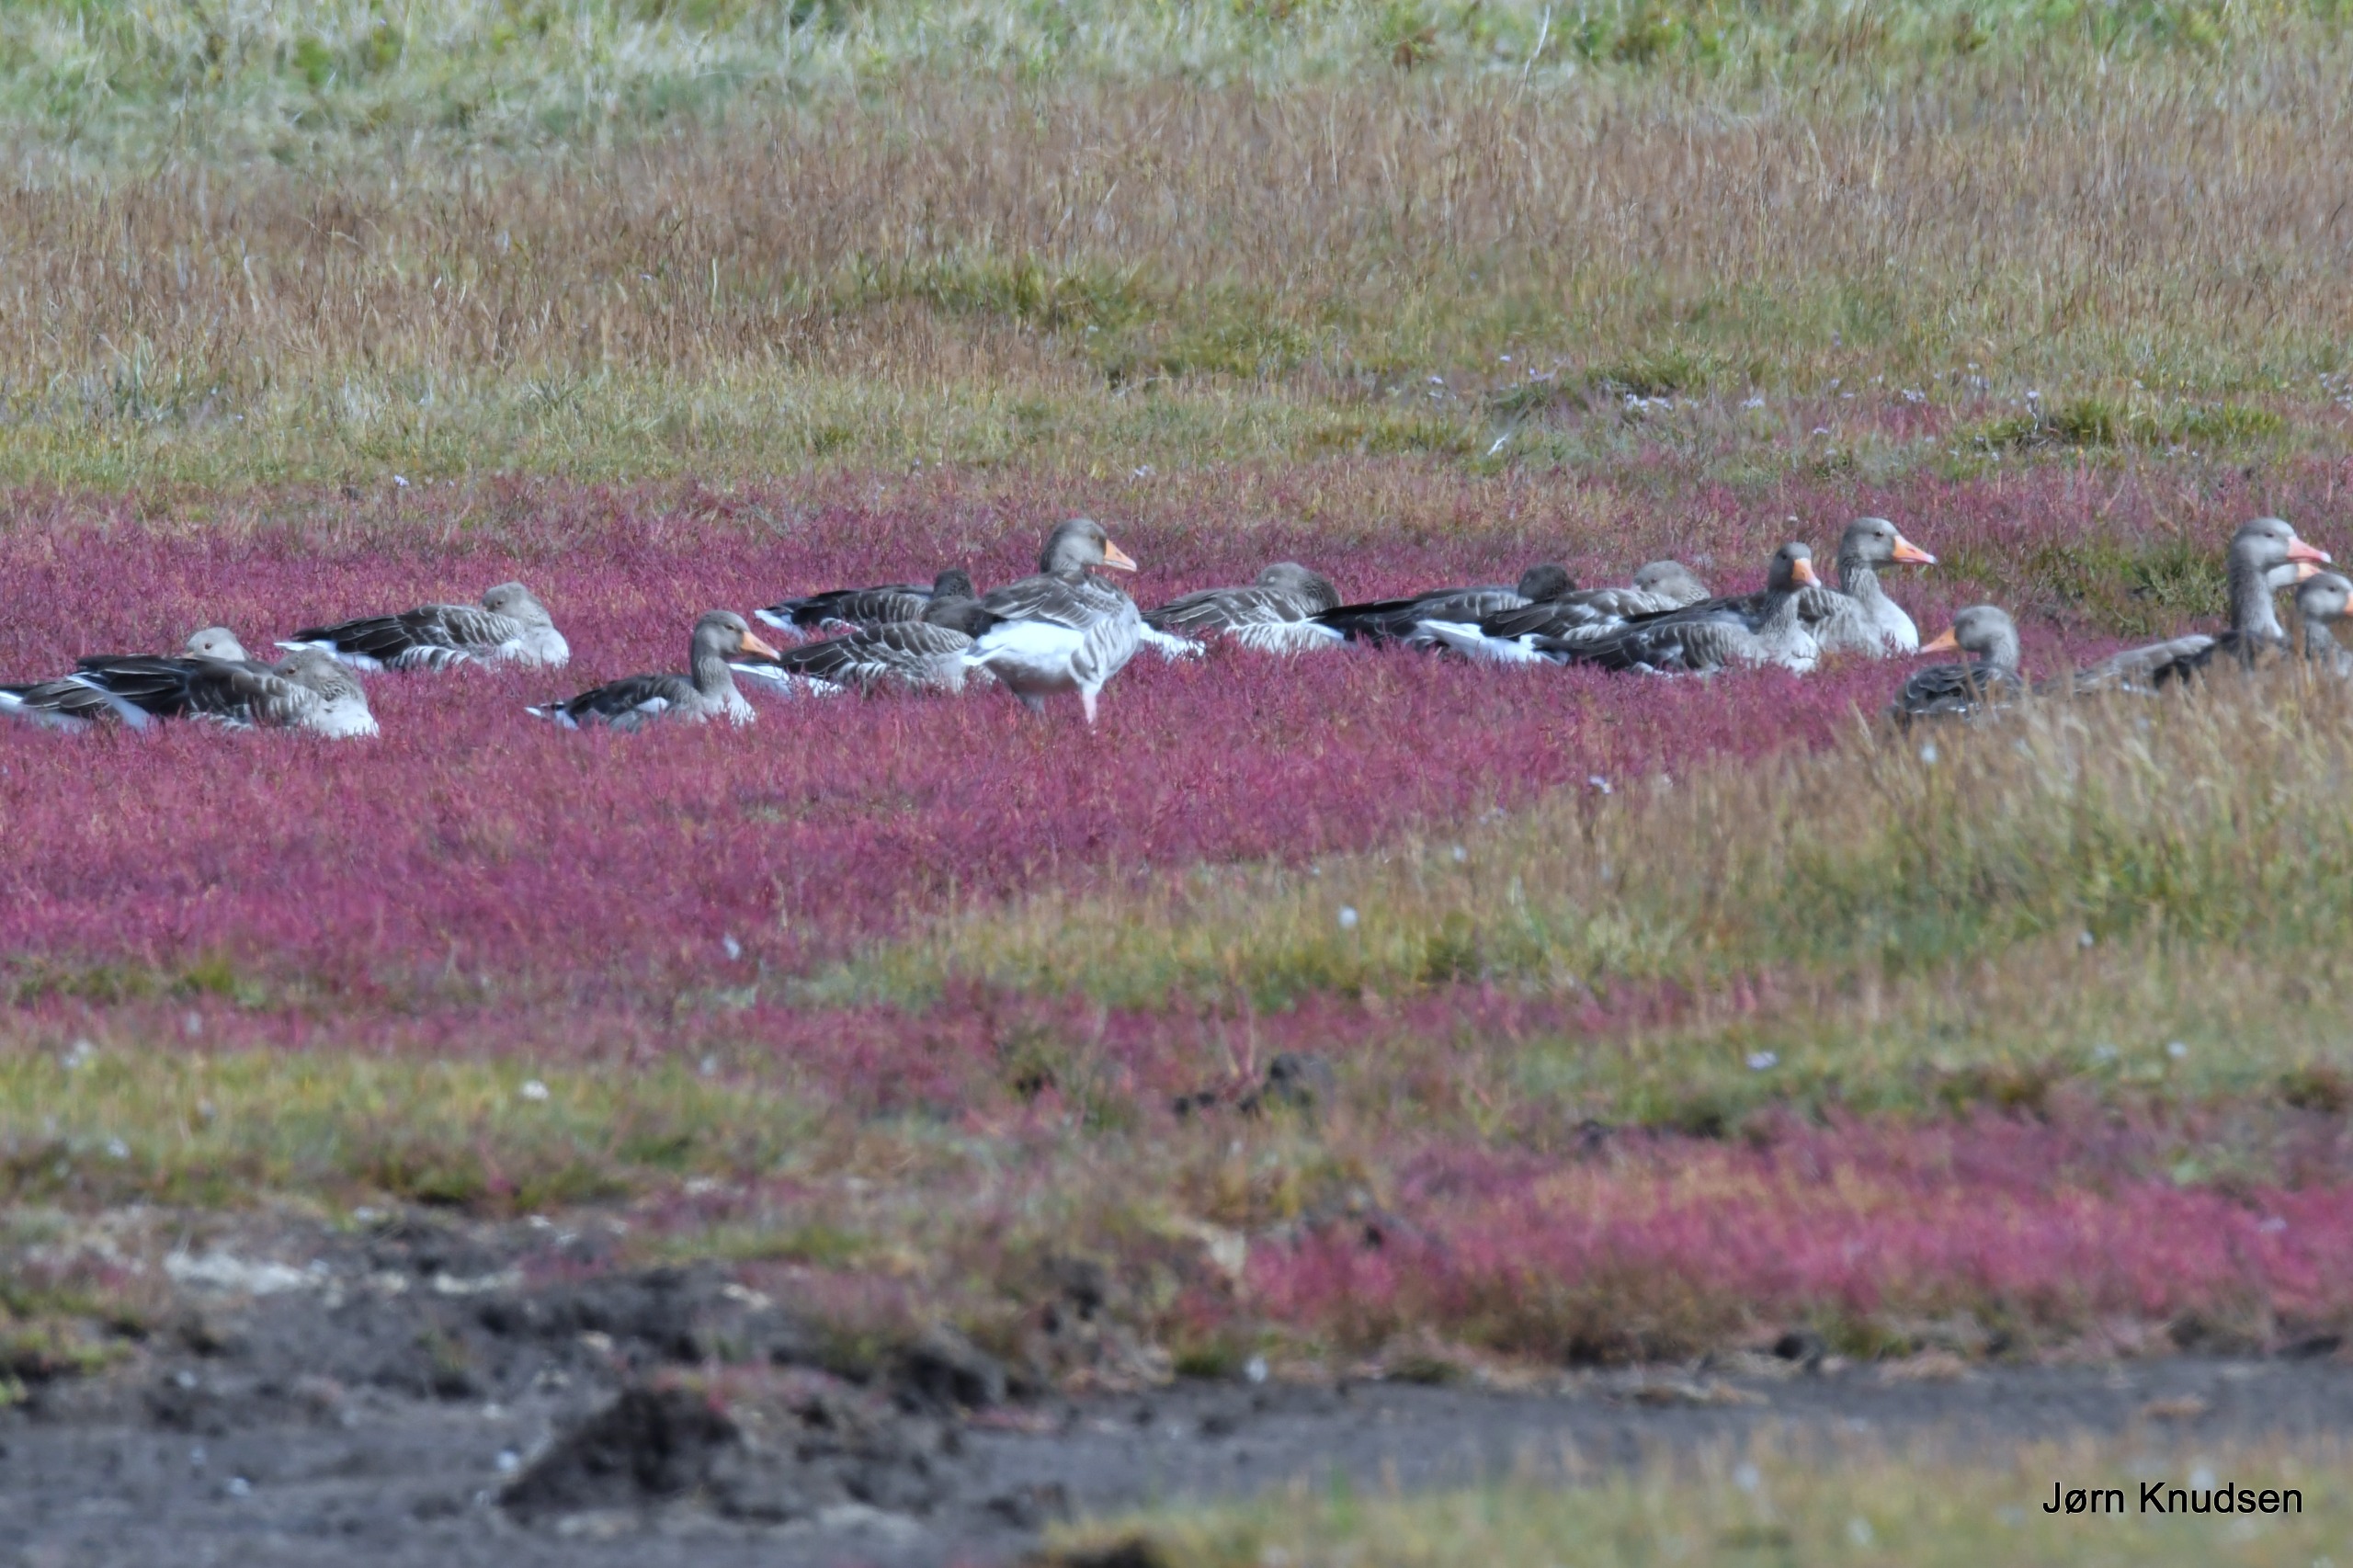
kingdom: Animalia
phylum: Chordata
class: Aves
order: Anseriformes
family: Anatidae
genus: Anser
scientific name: Anser anser
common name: Grågås
